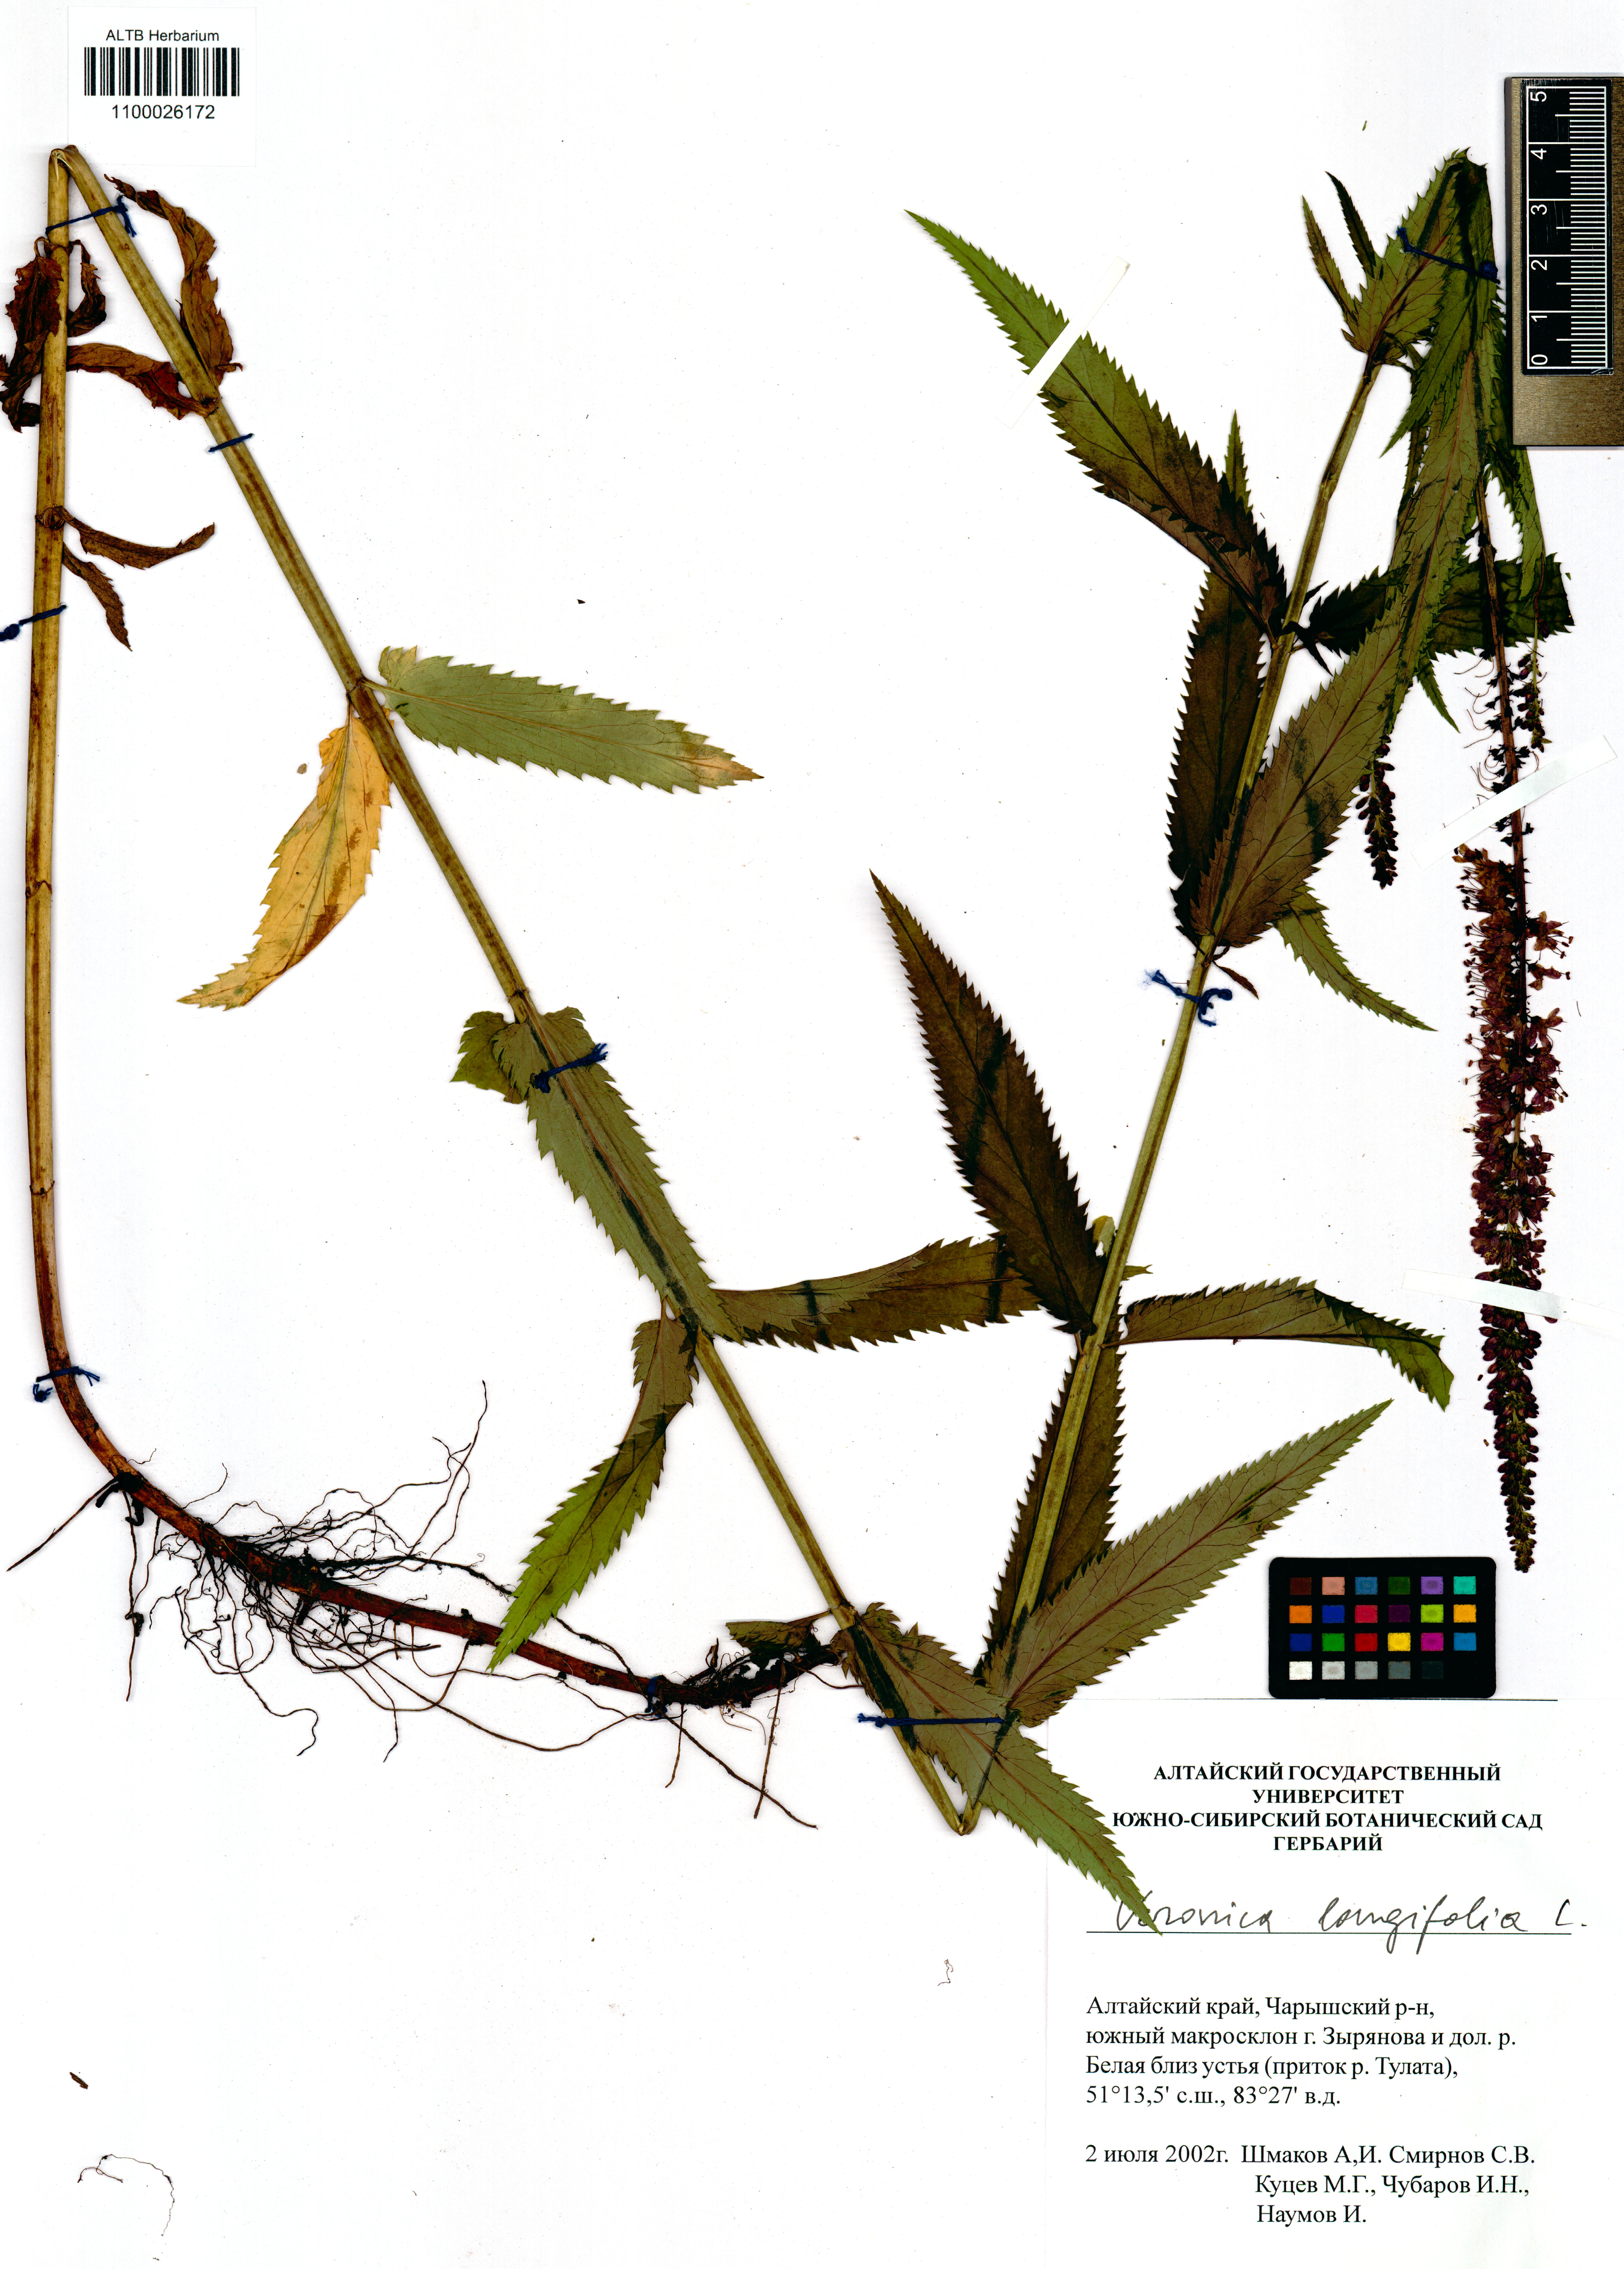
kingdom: Plantae
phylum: Tracheophyta
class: Magnoliopsida
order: Lamiales
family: Plantaginaceae
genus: Veronica
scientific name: Veronica longifolia
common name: Garden speedwell
